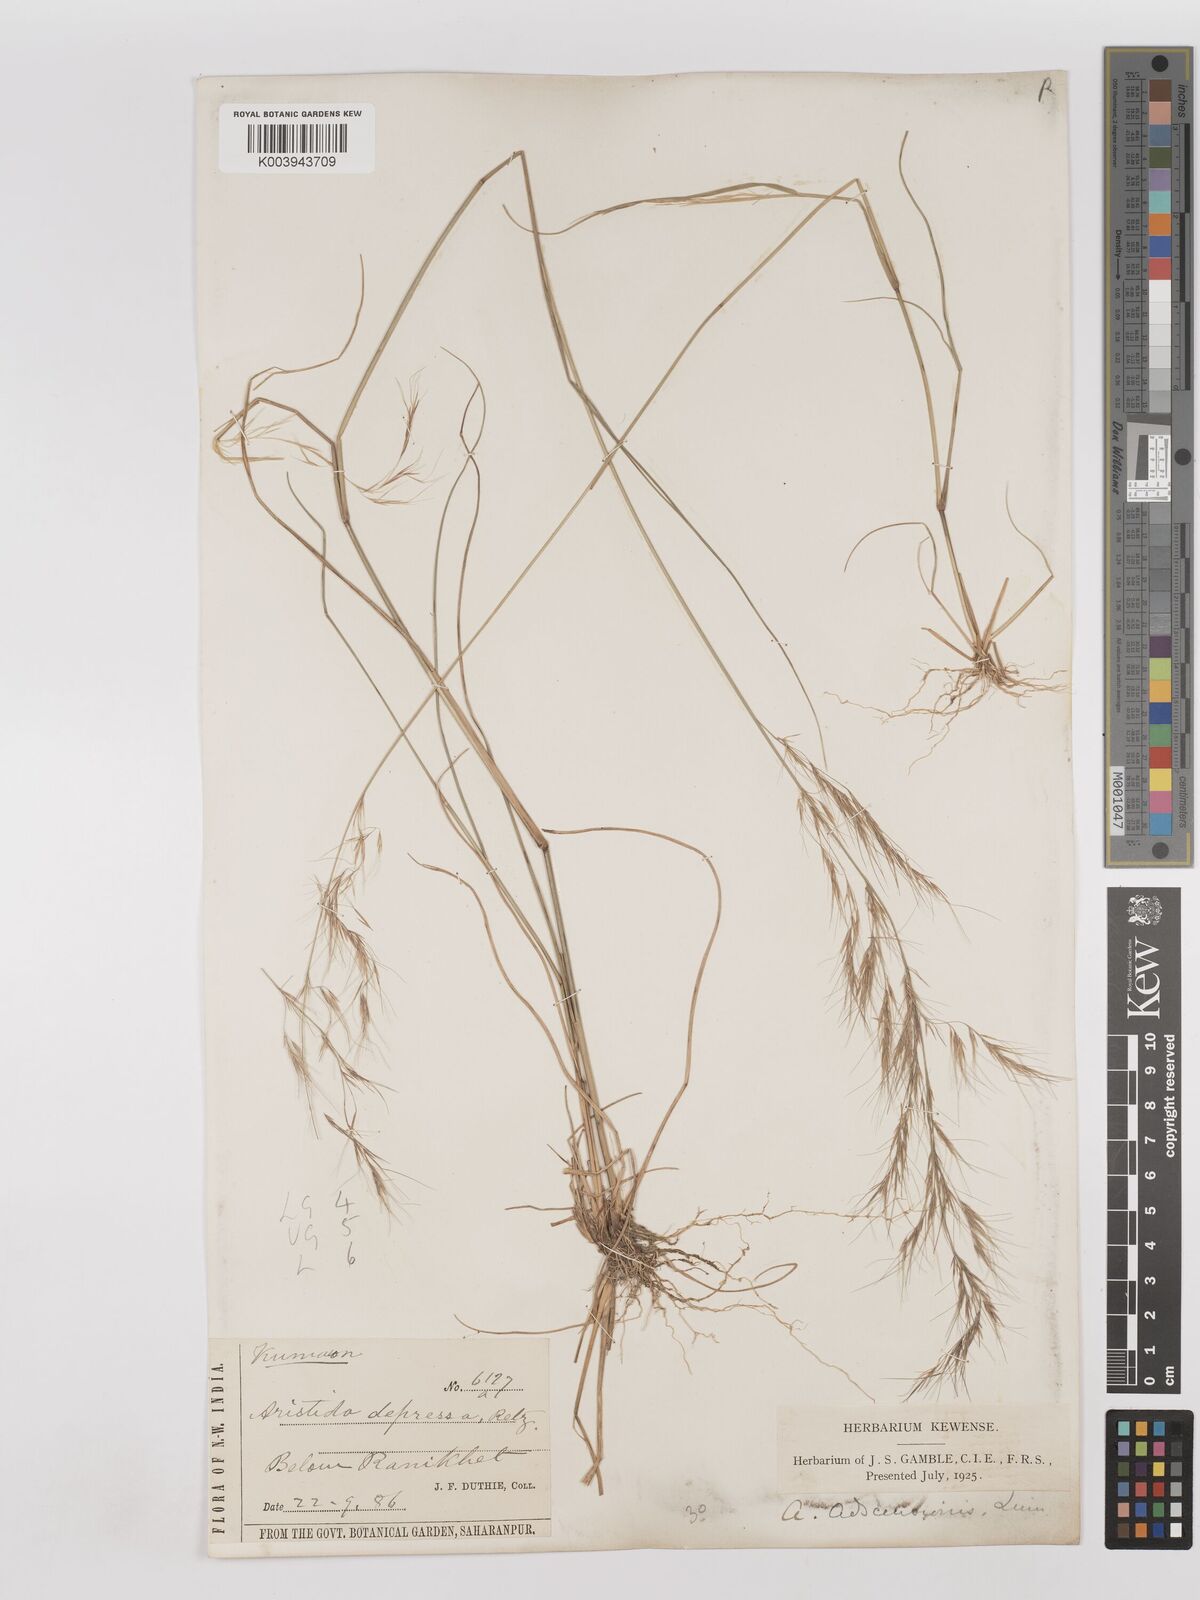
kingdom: Plantae
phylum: Tracheophyta
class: Liliopsida
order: Poales
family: Poaceae
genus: Aristida
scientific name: Aristida adscensionis
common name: Sixweeks threeawn
